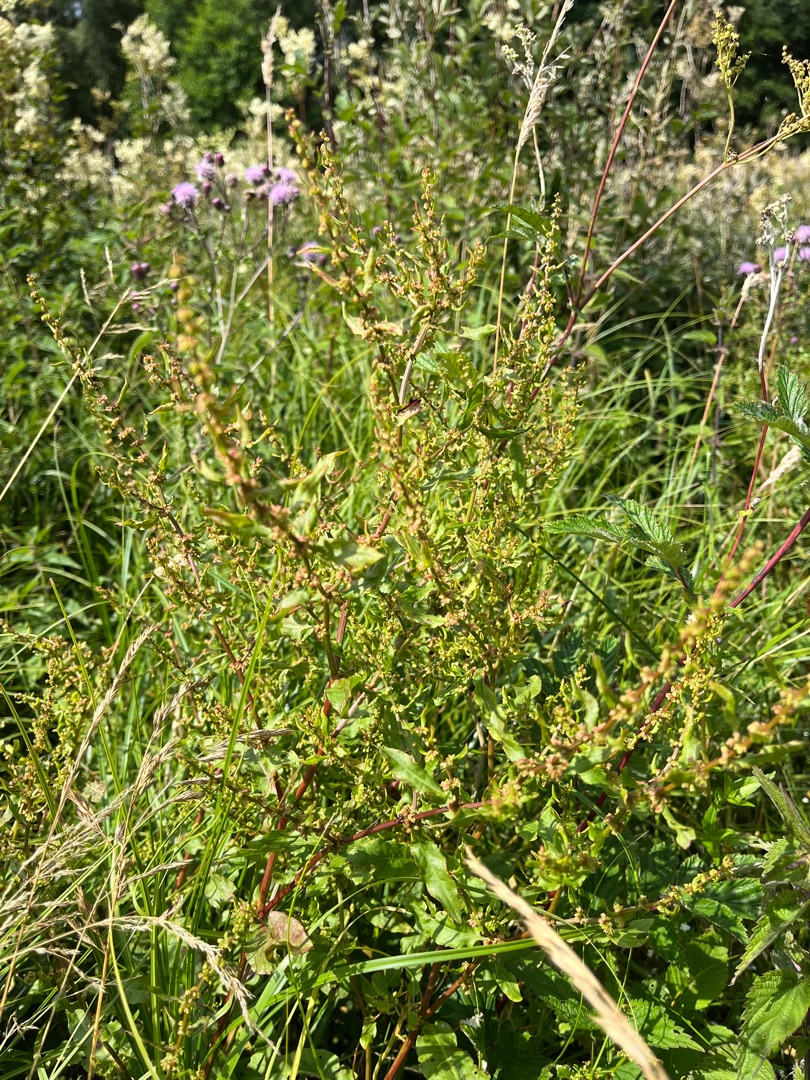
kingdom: Plantae
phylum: Tracheophyta
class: Magnoliopsida
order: Caryophyllales
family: Polygonaceae
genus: Rumex
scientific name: Rumex conglomeratus
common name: Nøgle-skræppe
